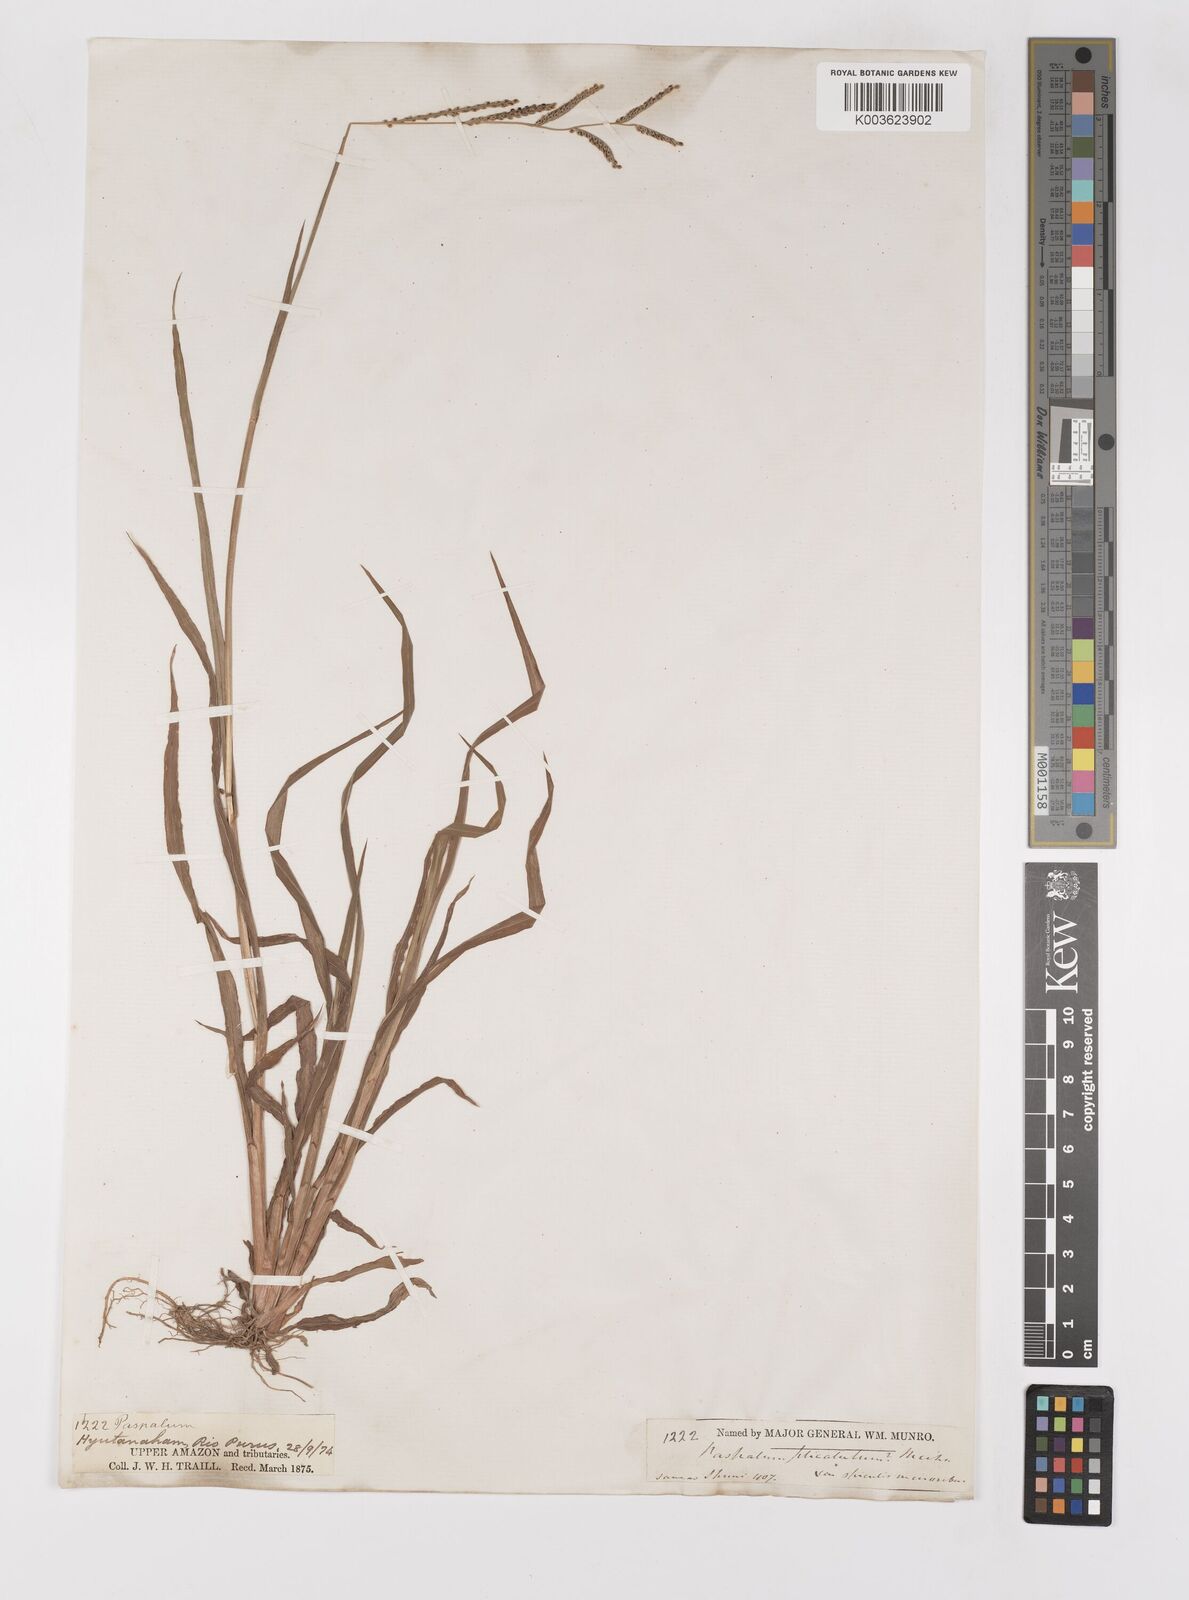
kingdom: Plantae
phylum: Tracheophyta
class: Liliopsida
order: Poales
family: Poaceae
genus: Paspalum
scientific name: Paspalum melanospermum
